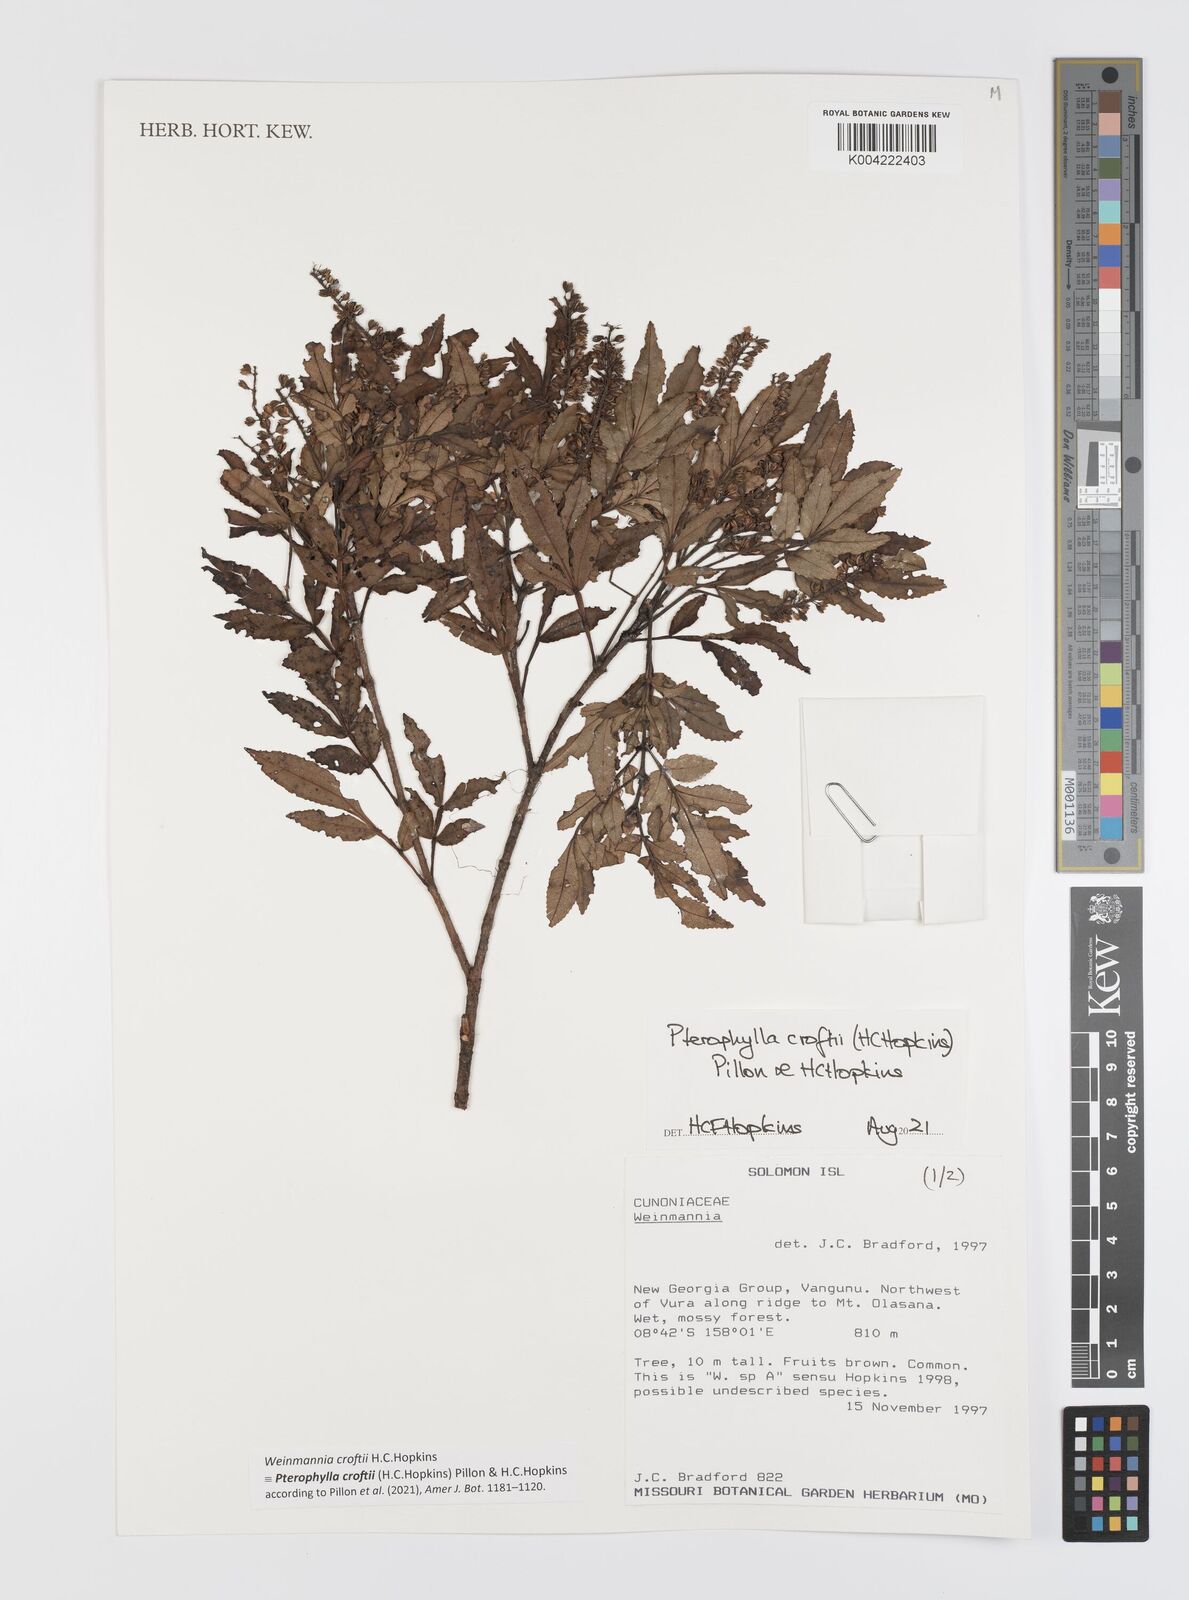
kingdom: Plantae
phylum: Tracheophyta
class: Magnoliopsida
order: Oxalidales
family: Cunoniaceae
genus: Pterophylla
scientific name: Pterophylla croftii
